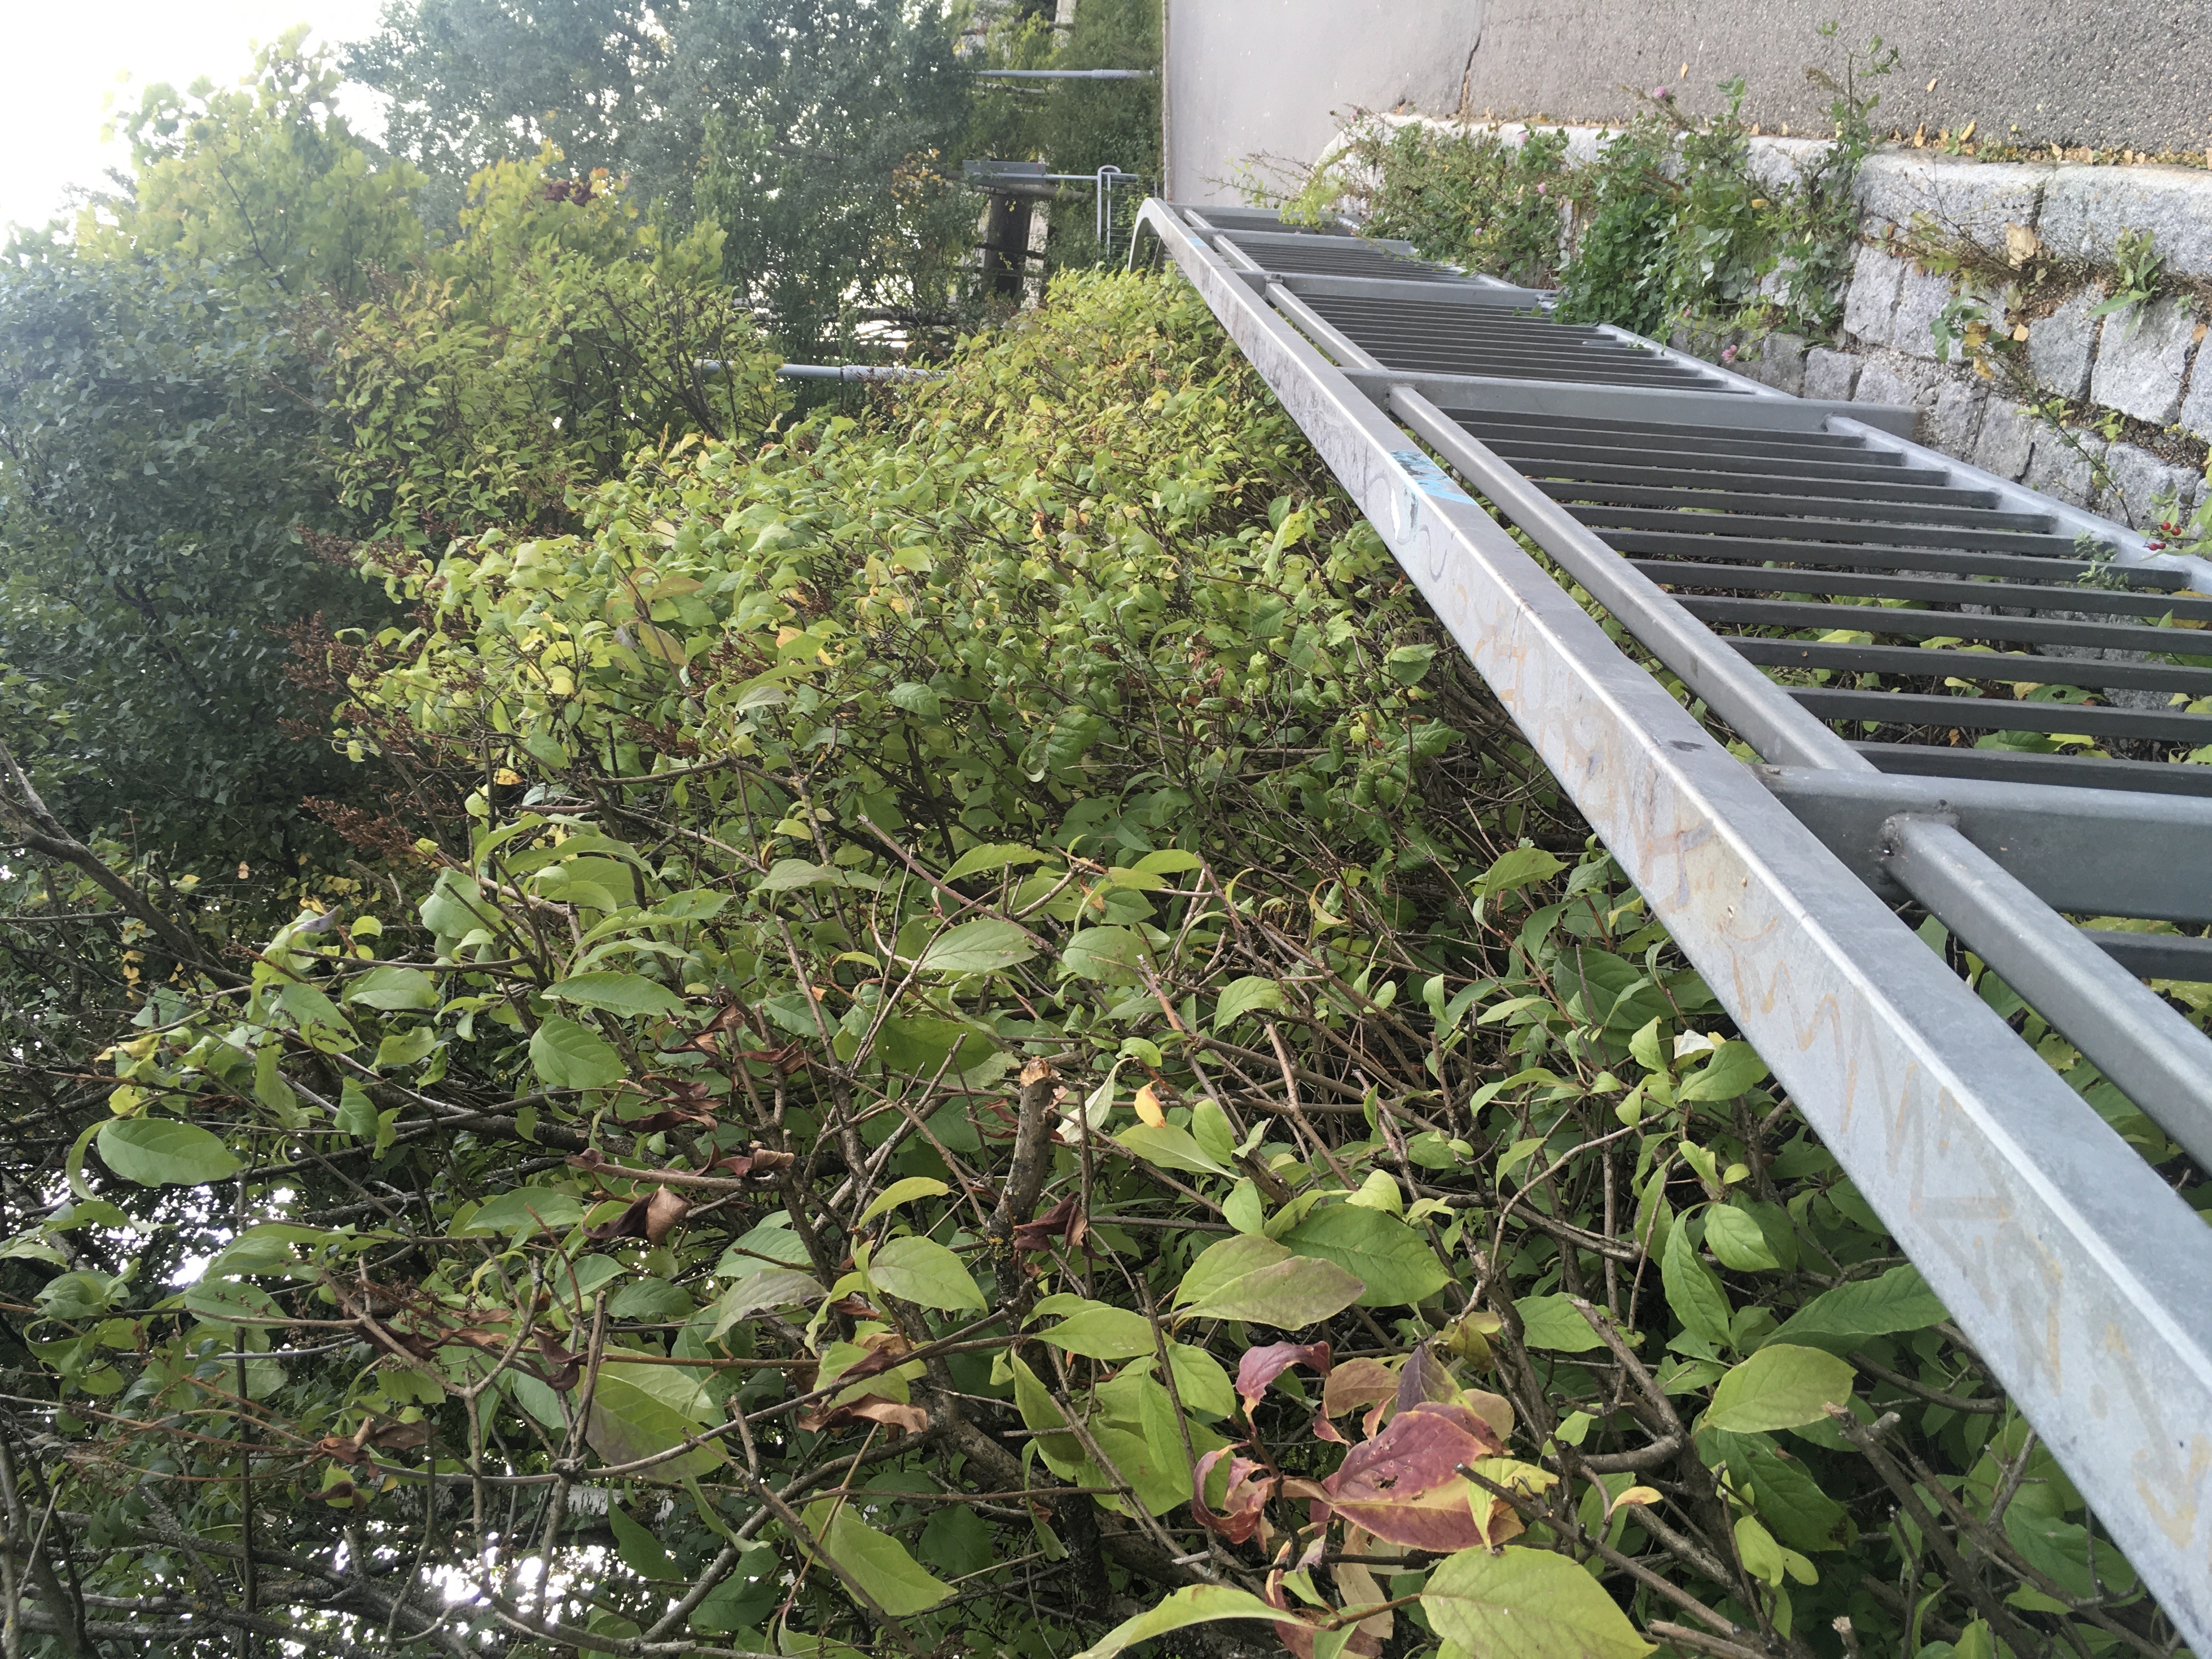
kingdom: Plantae
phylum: Tracheophyta
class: Magnoliopsida
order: Lamiales
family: Oleaceae
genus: Syringa
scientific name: Syringa josikaea
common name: ungarnsyrin
